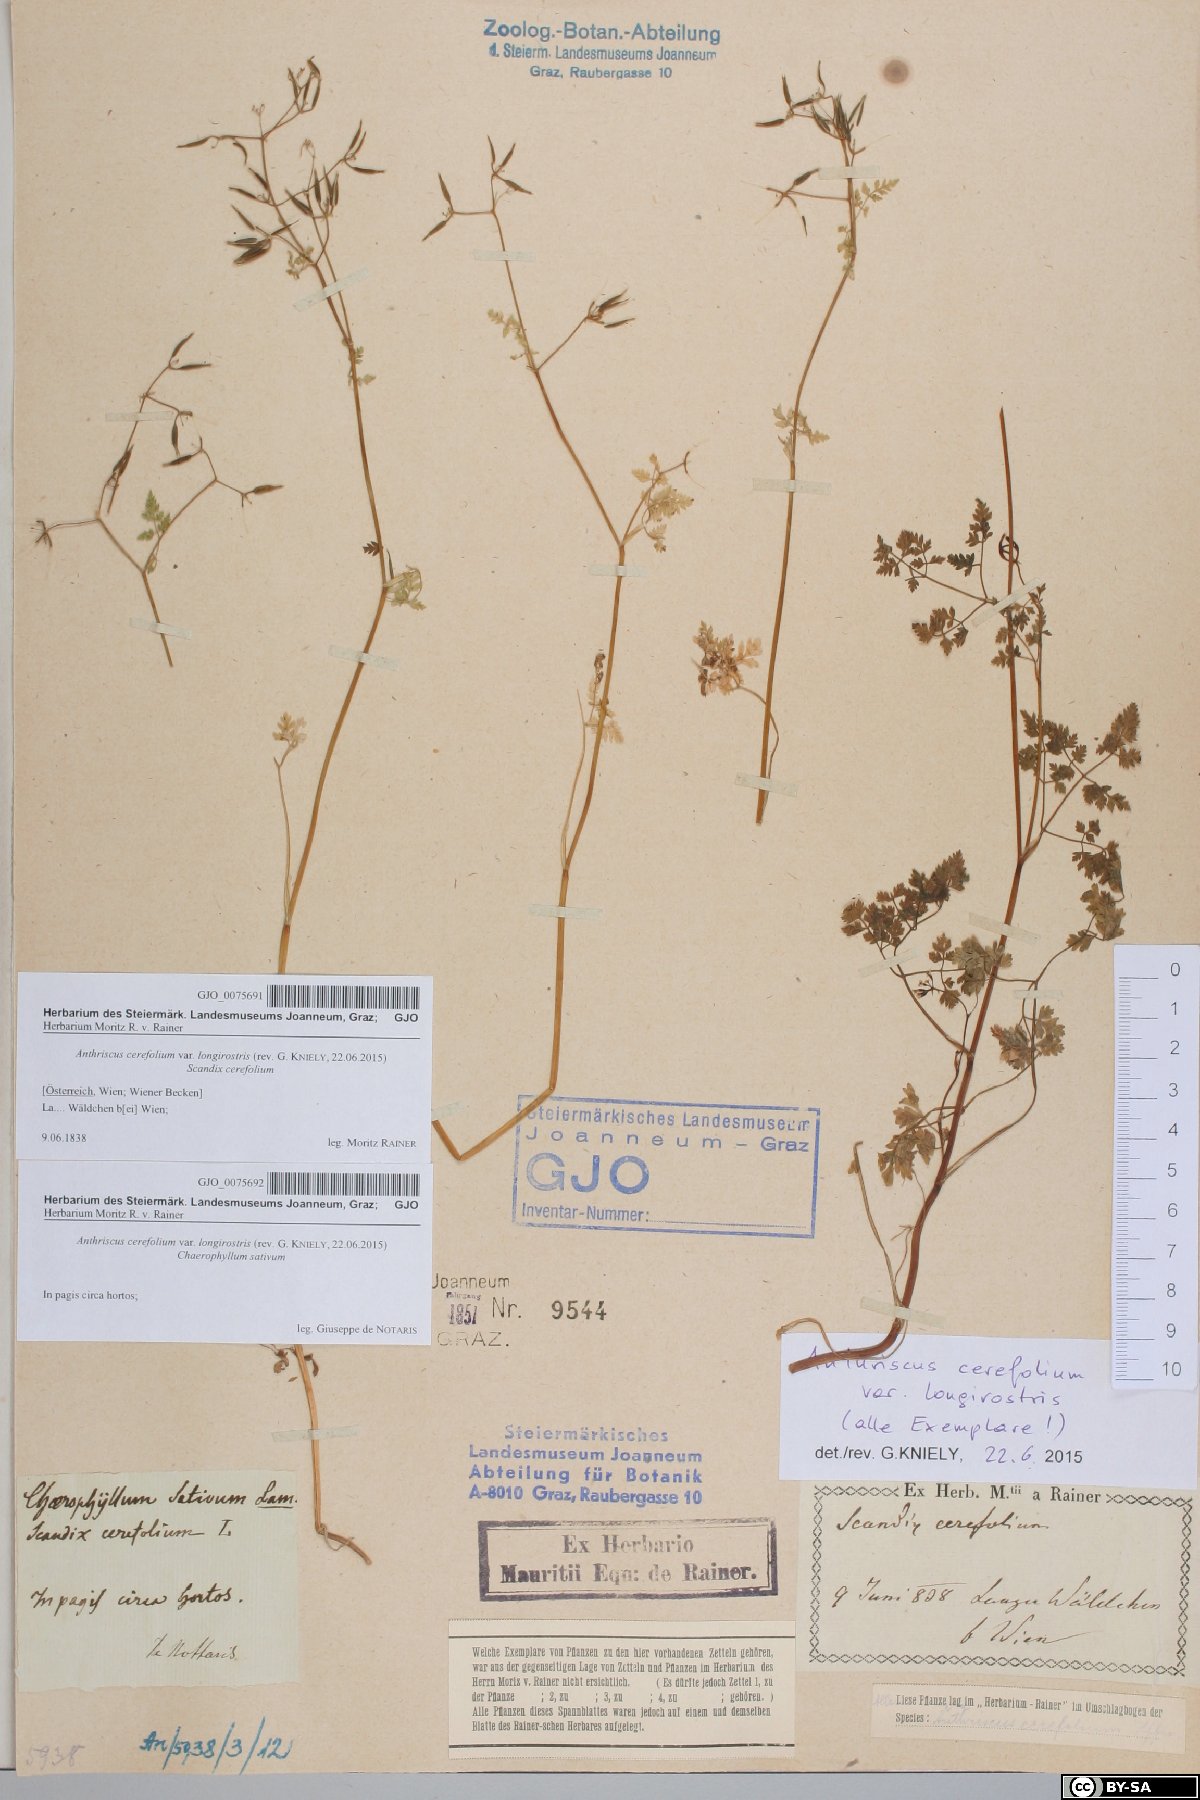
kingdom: Plantae
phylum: Tracheophyta
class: Magnoliopsida
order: Apiales
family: Apiaceae
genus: Anthriscus
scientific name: Anthriscus cerefolium
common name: Garden chervil
